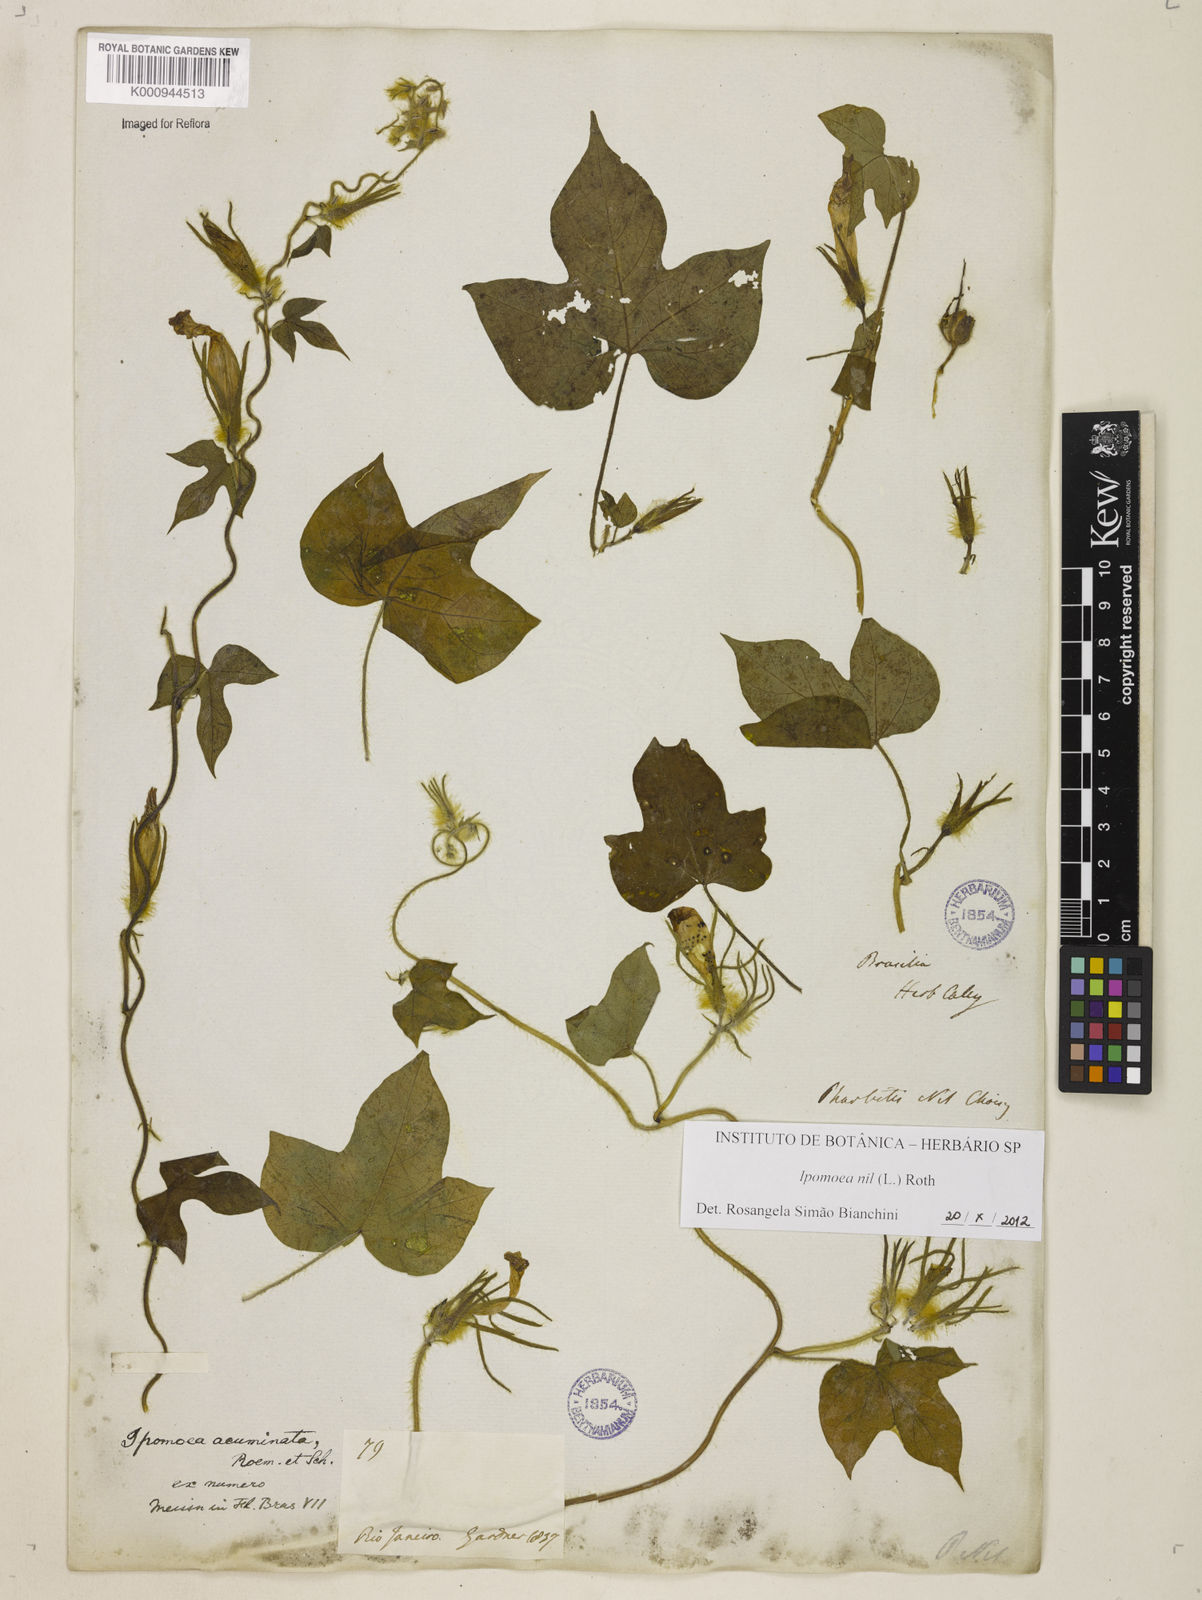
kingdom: Plantae
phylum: Tracheophyta
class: Magnoliopsida
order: Solanales
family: Convolvulaceae
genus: Ipomoea
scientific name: Ipomoea nil
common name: Japanese morning-glory
